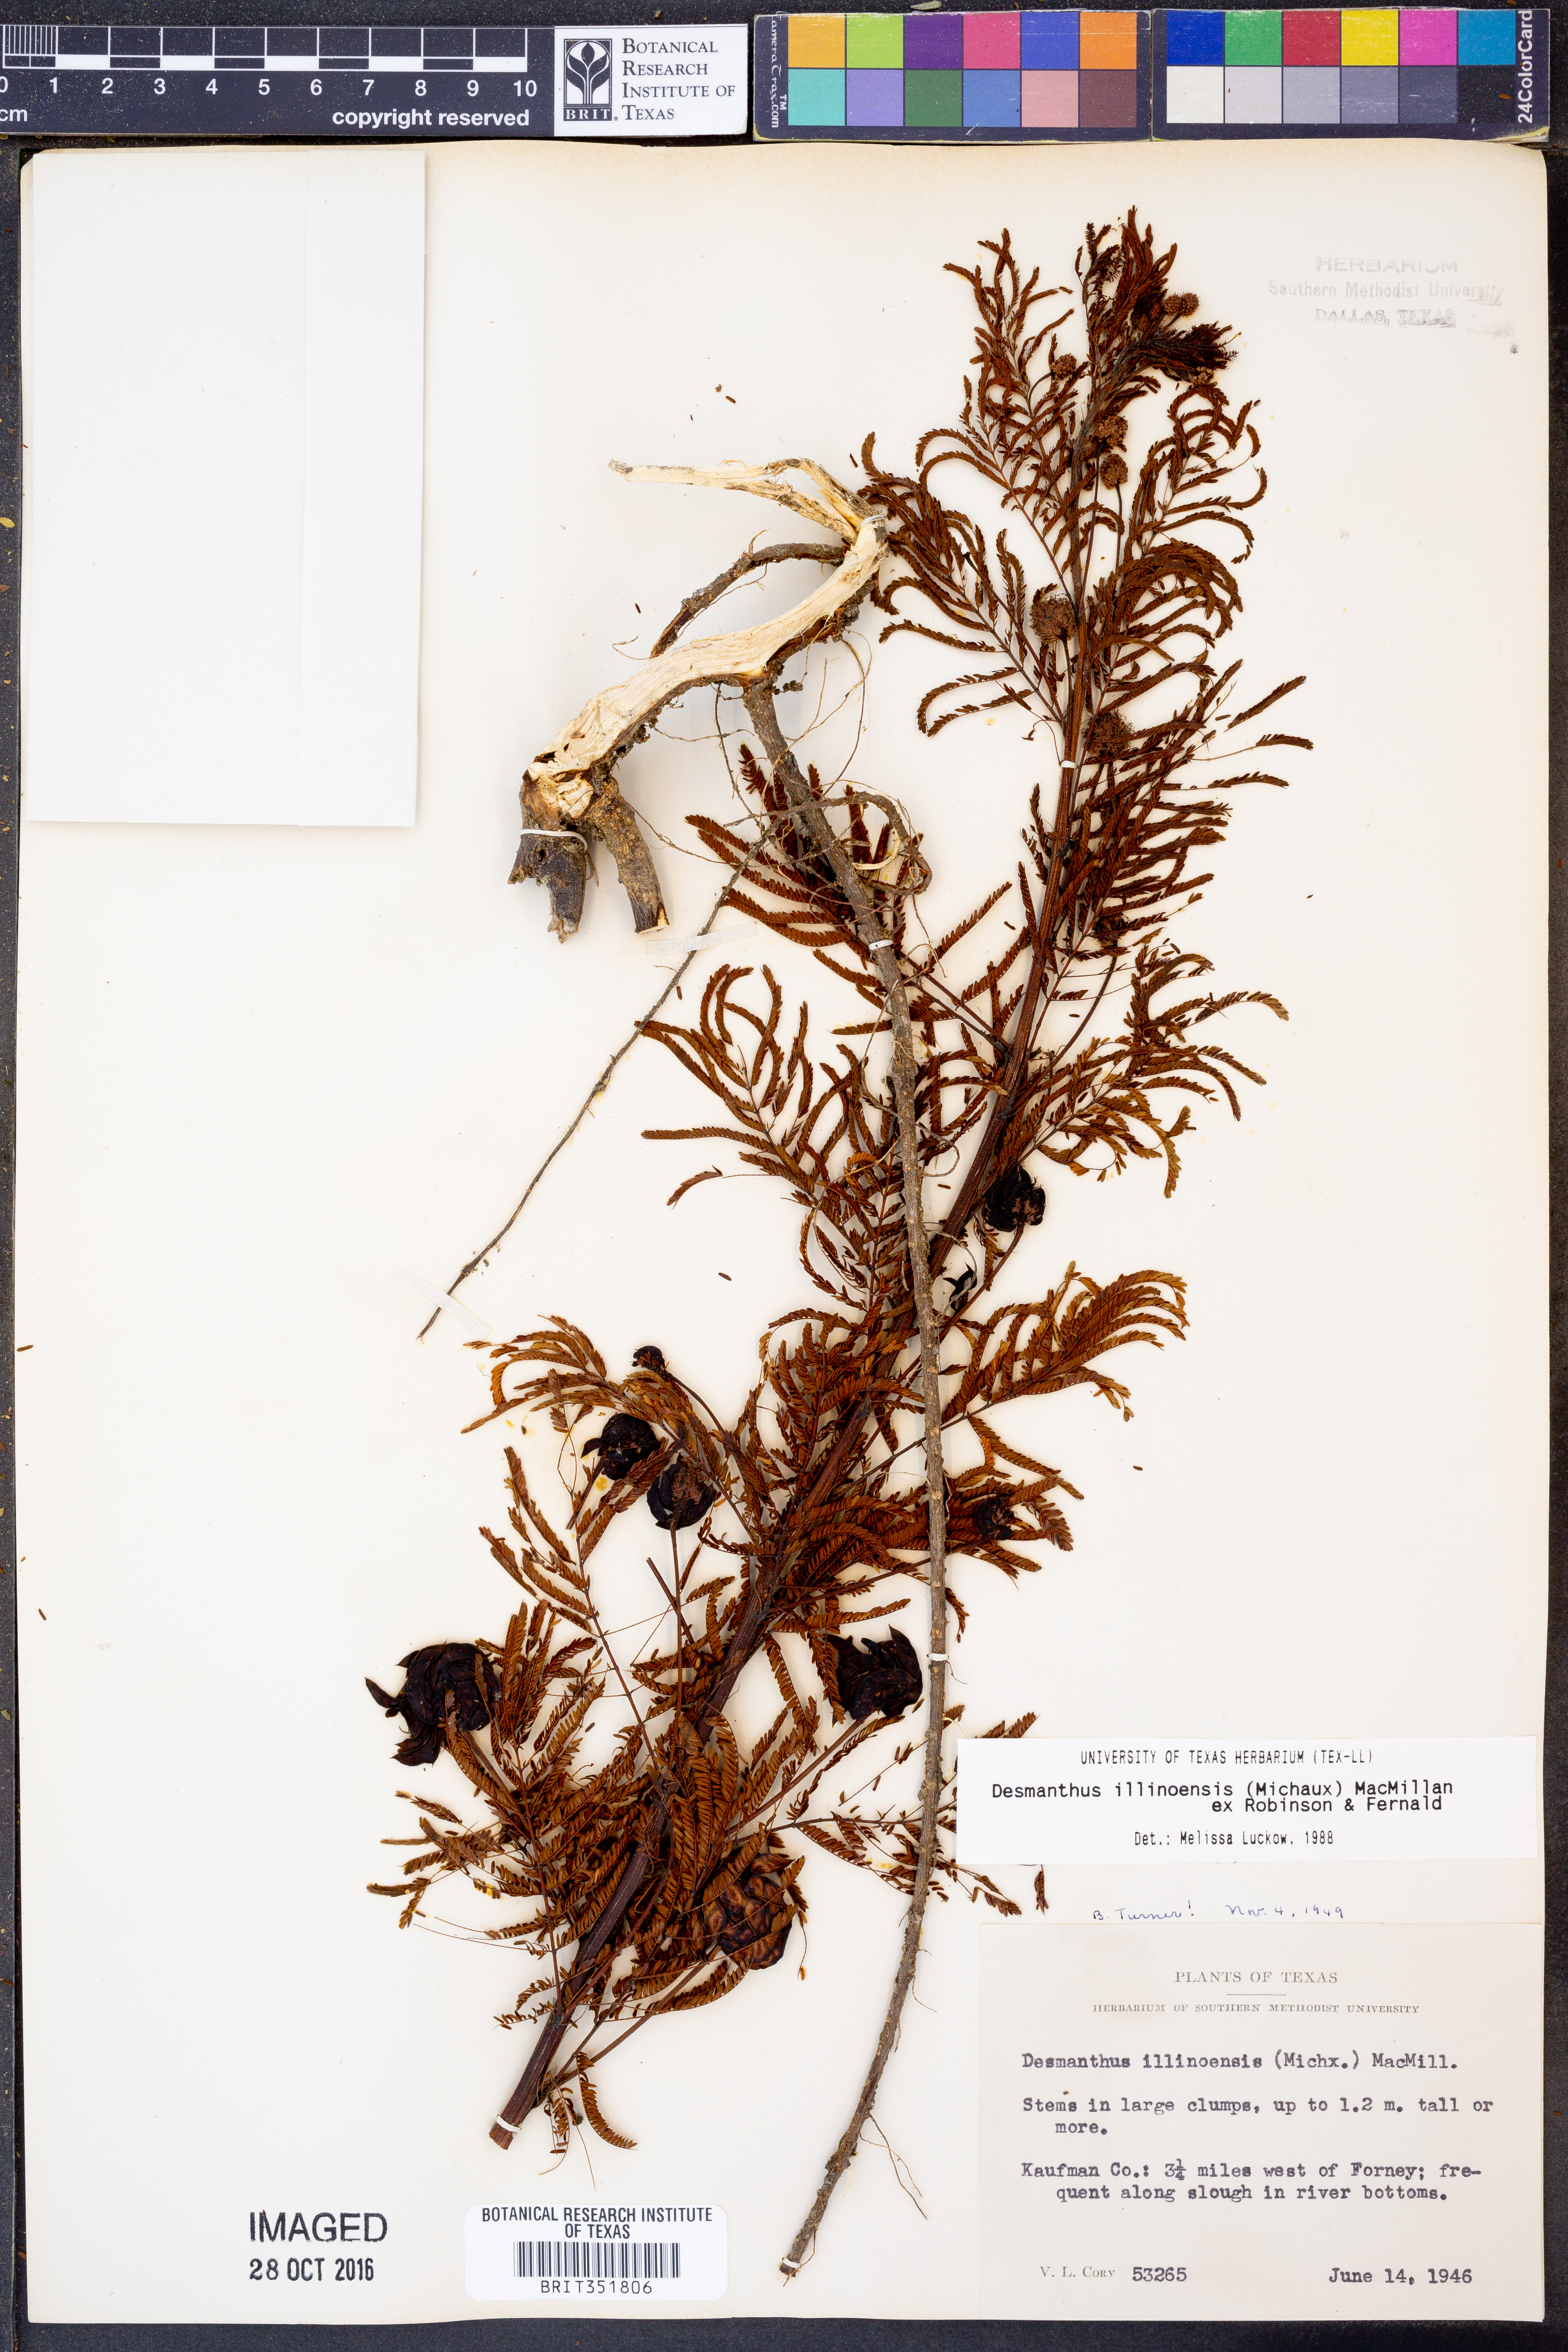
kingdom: Plantae
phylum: Tracheophyta
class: Magnoliopsida
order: Fabales
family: Fabaceae
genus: Desmanthus
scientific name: Desmanthus illinoensis
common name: Illinois bundle-flower
